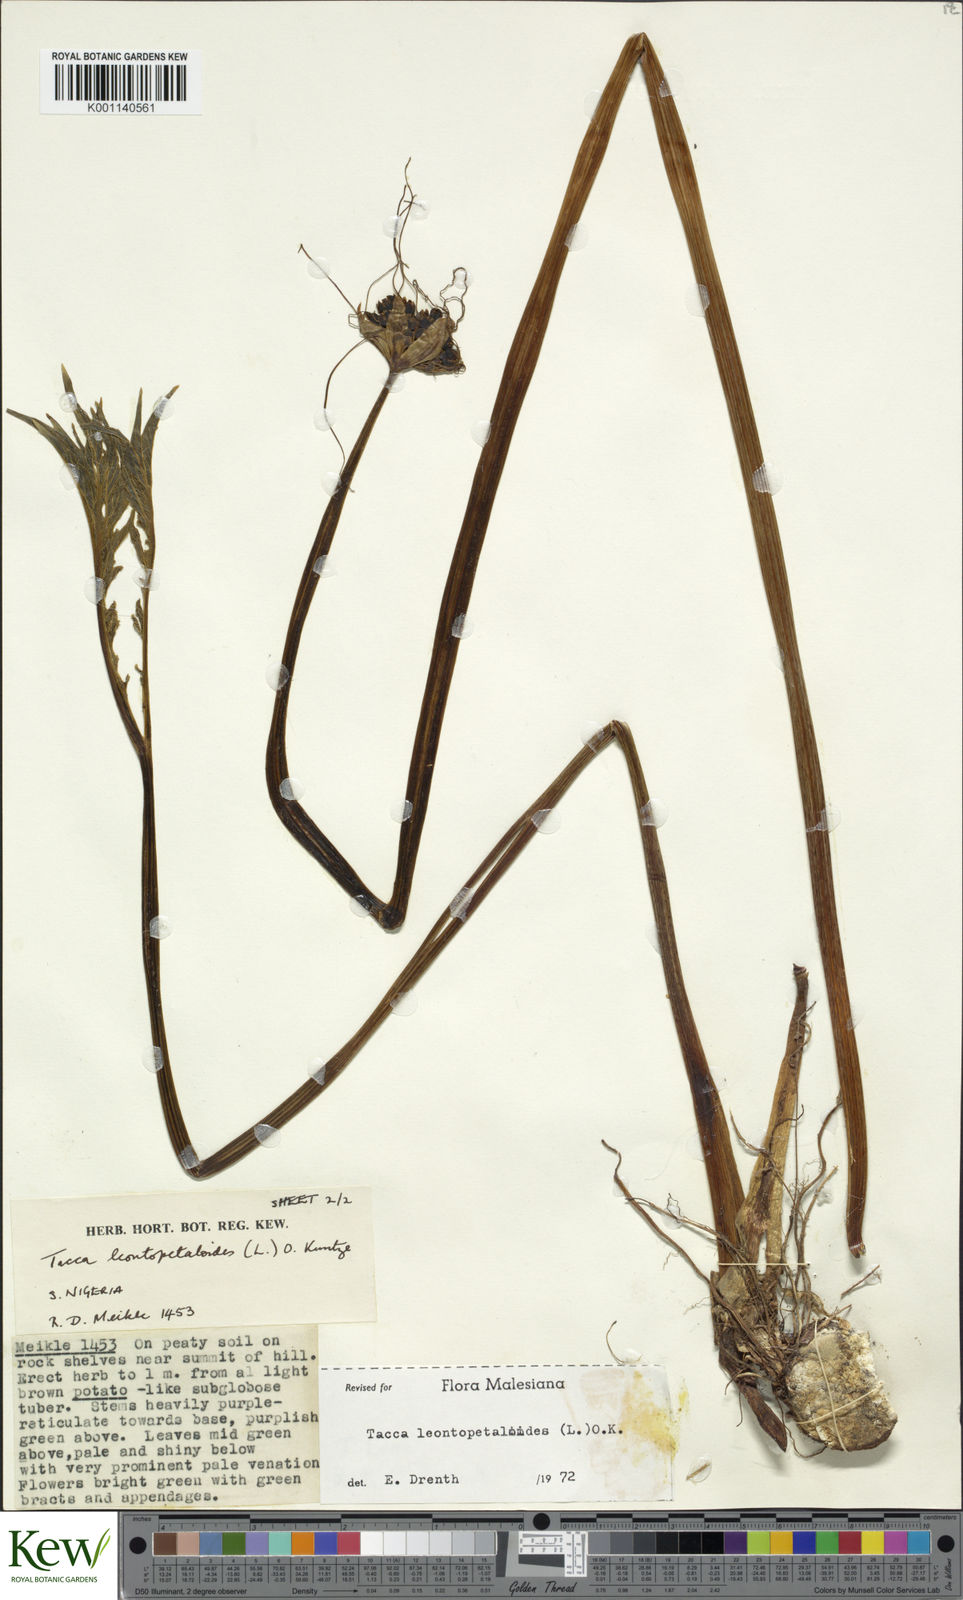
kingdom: Plantae
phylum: Tracheophyta
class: Liliopsida
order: Dioscoreales
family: Dioscoreaceae
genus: Tacca
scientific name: Tacca leontopetaloides
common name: Arrowroot
